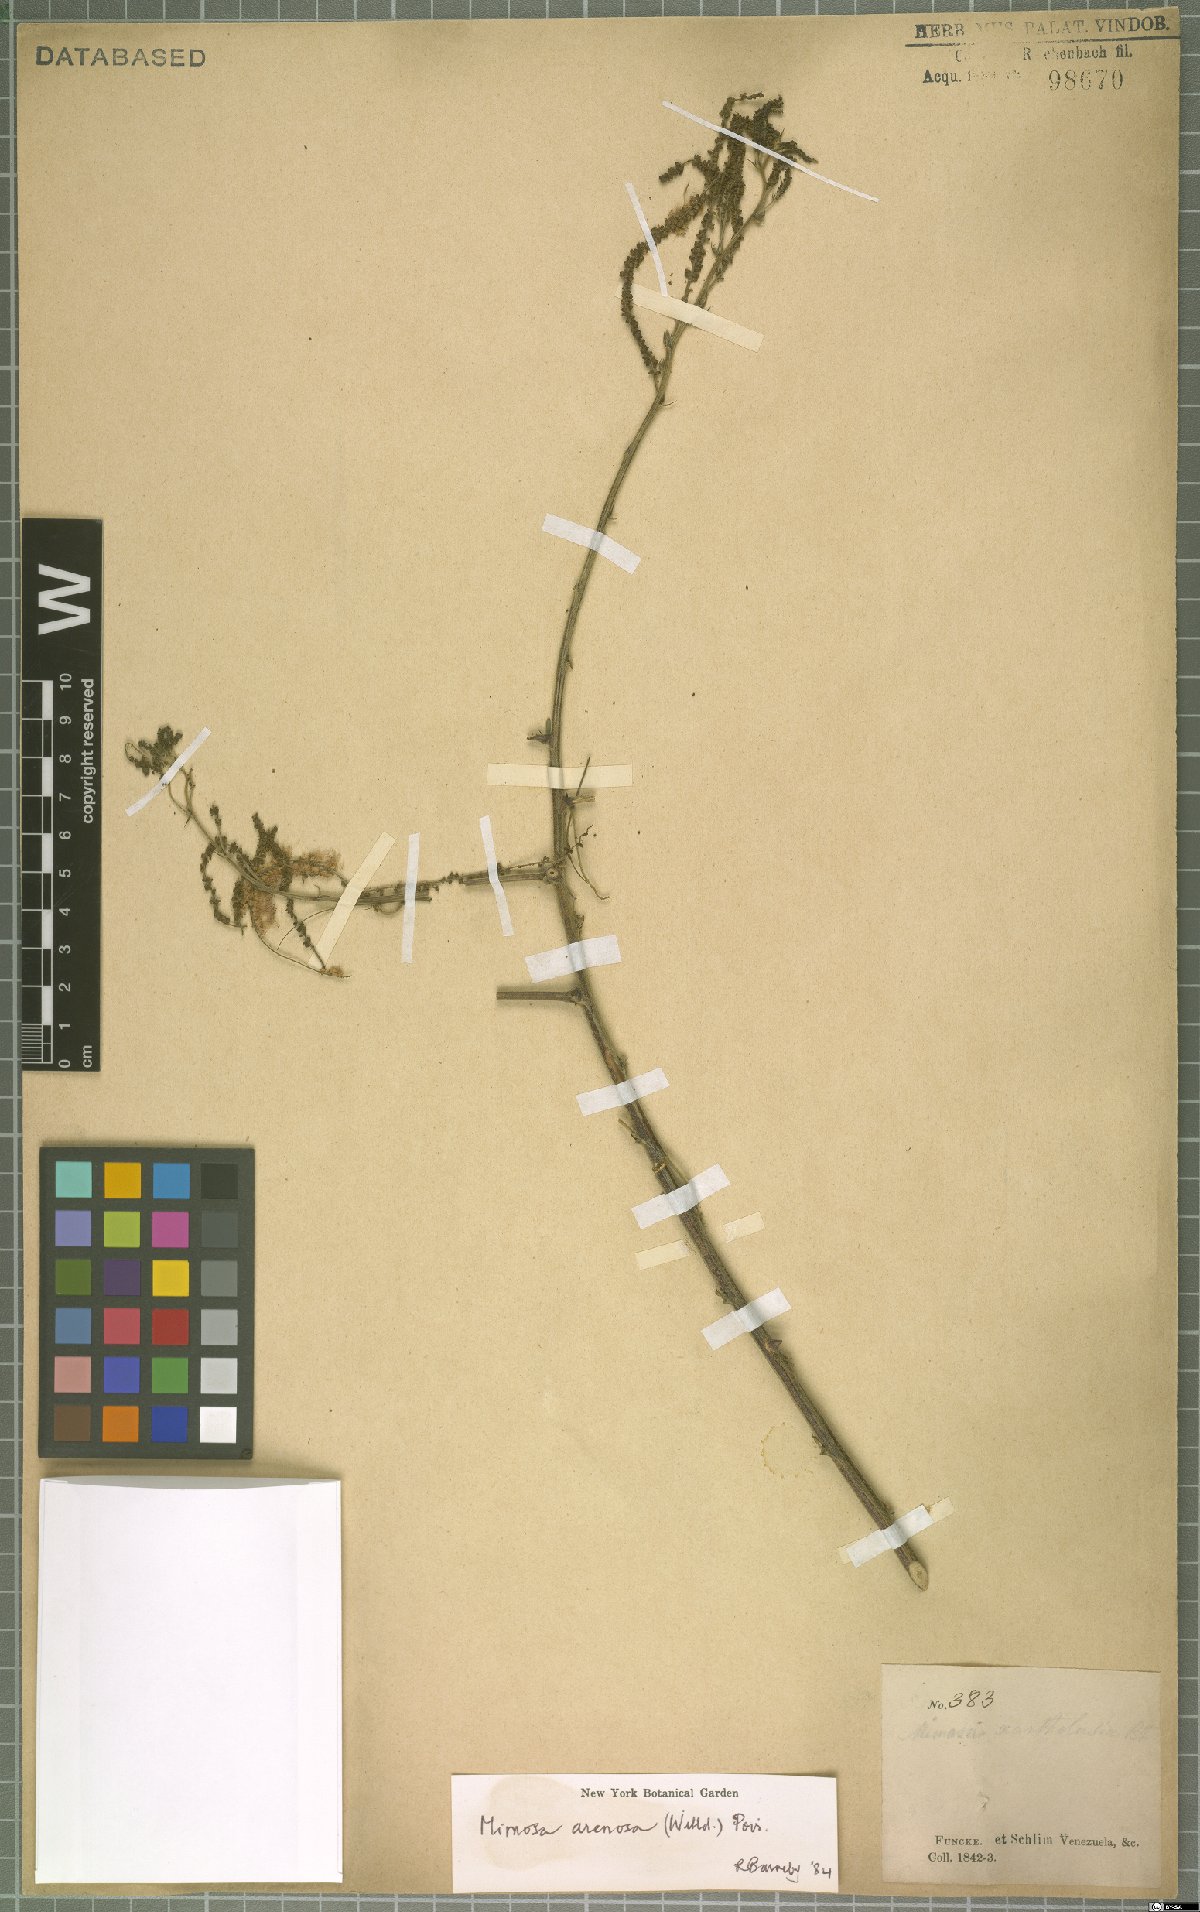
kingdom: Plantae
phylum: Tracheophyta
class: Magnoliopsida
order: Fabales
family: Fabaceae
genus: Mimosa
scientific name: Mimosa arenosa
